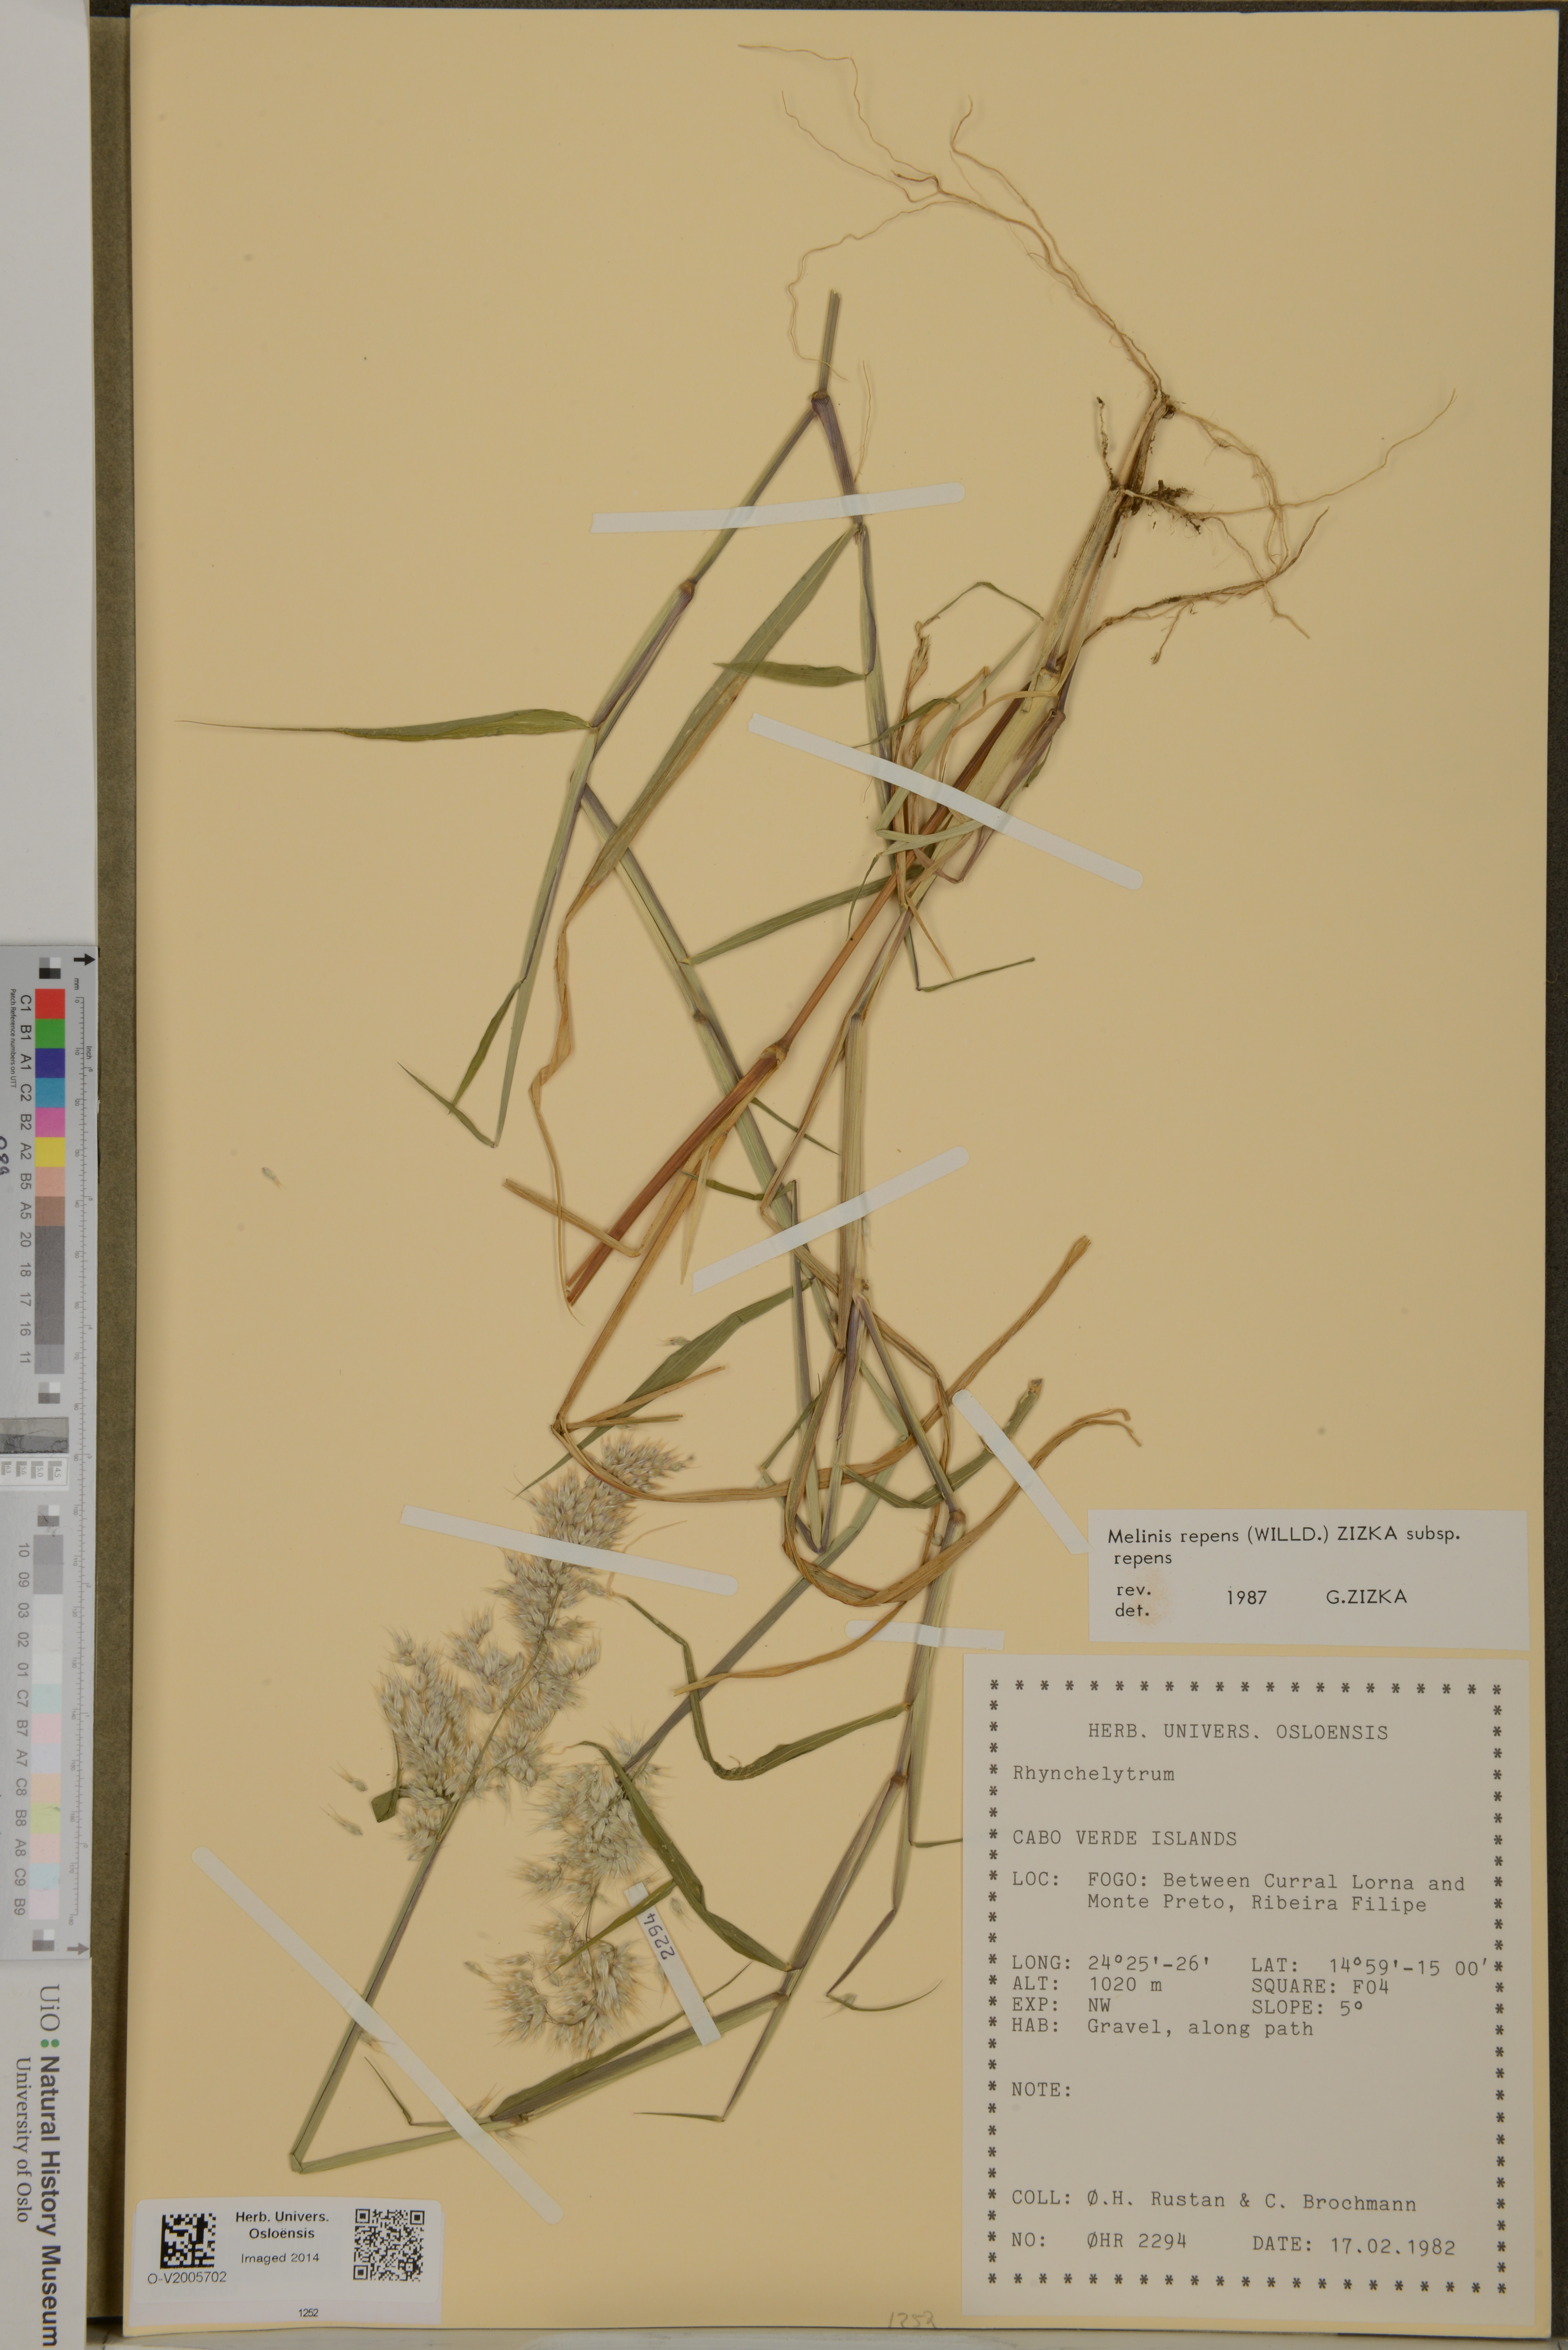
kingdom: Plantae
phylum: Tracheophyta
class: Liliopsida
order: Poales
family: Poaceae
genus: Melinis
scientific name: Melinis repens
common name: Rose natal grass
